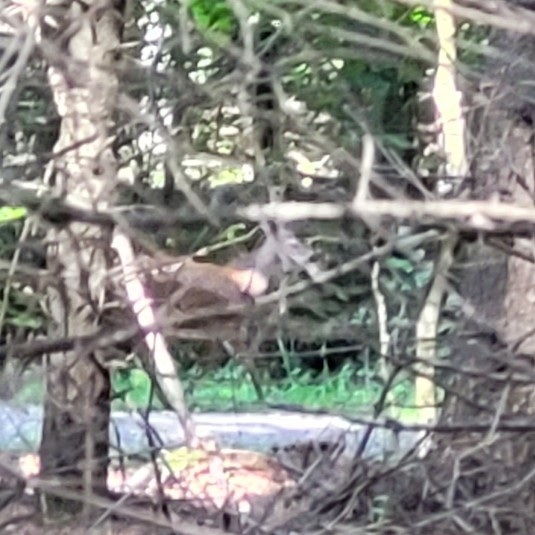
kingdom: Animalia
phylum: Chordata
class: Mammalia
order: Artiodactyla
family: Cervidae
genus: Capreolus
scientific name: Capreolus capreolus
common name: Rådyr
